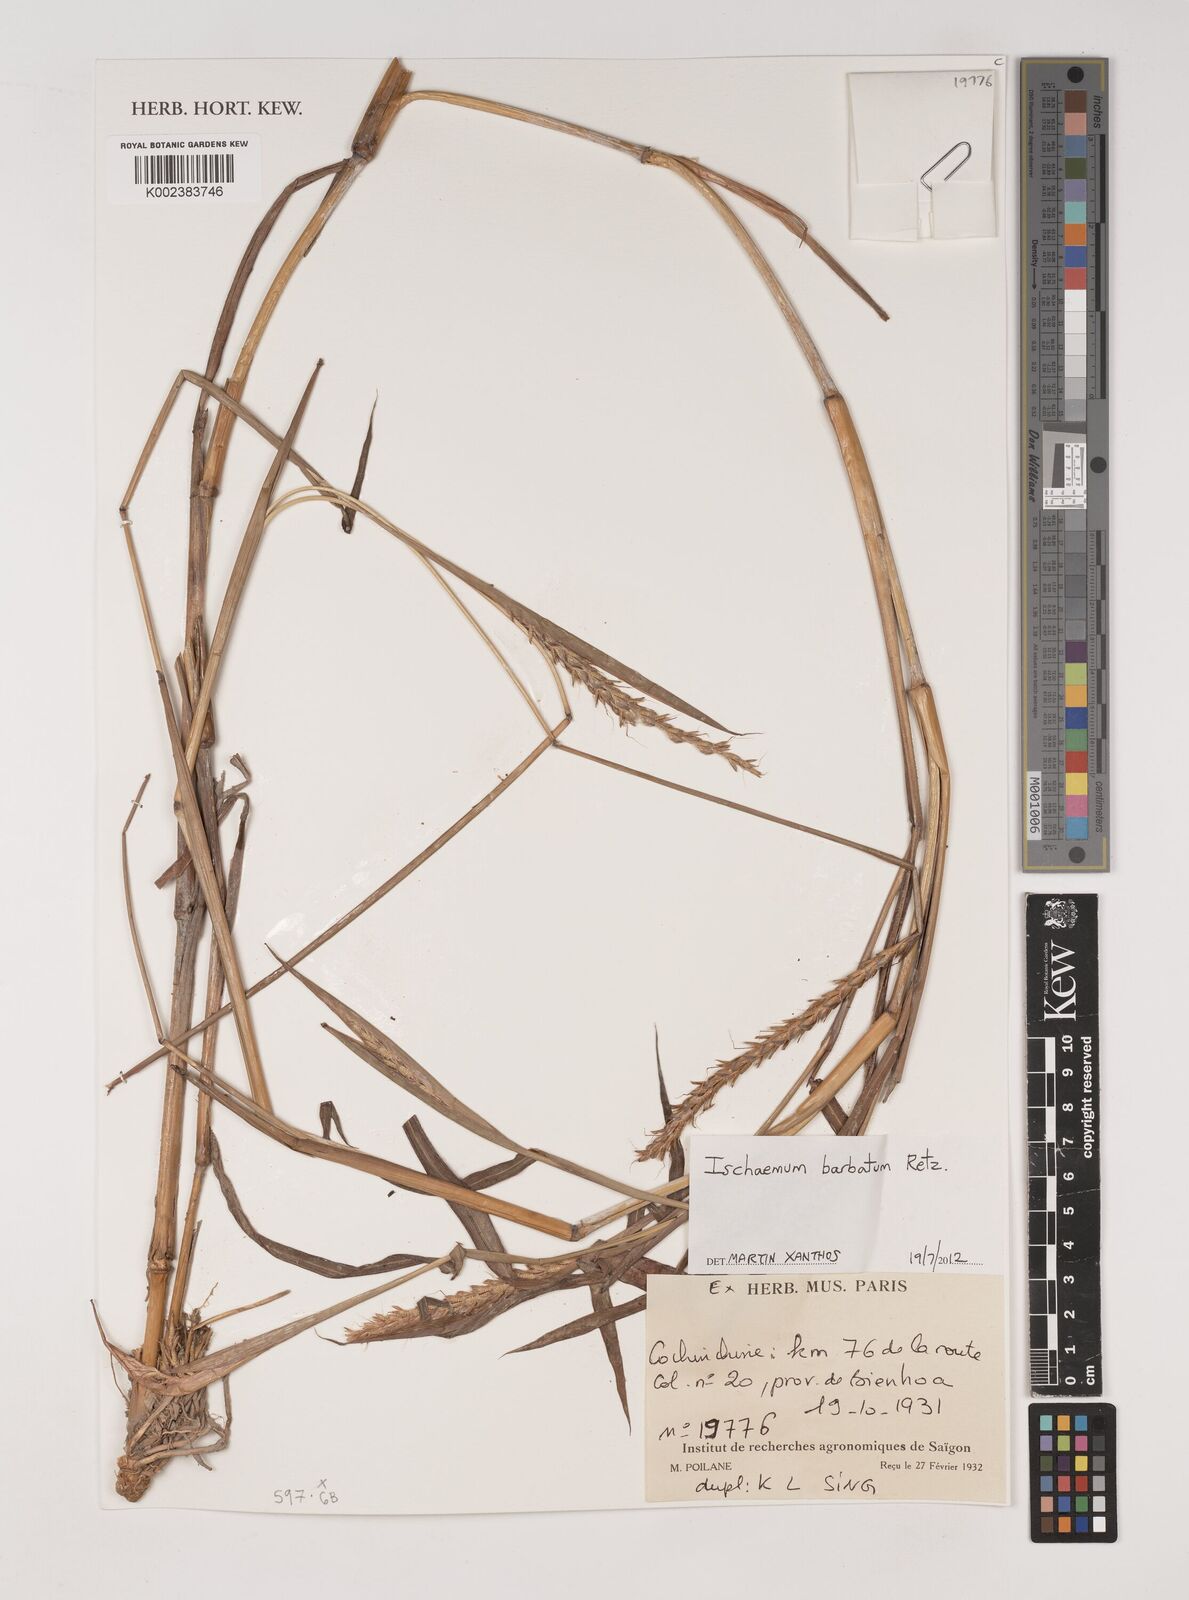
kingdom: Plantae
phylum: Tracheophyta
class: Liliopsida
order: Poales
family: Poaceae
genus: Ischaemum
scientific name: Ischaemum polystachyum
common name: Paddle grass
